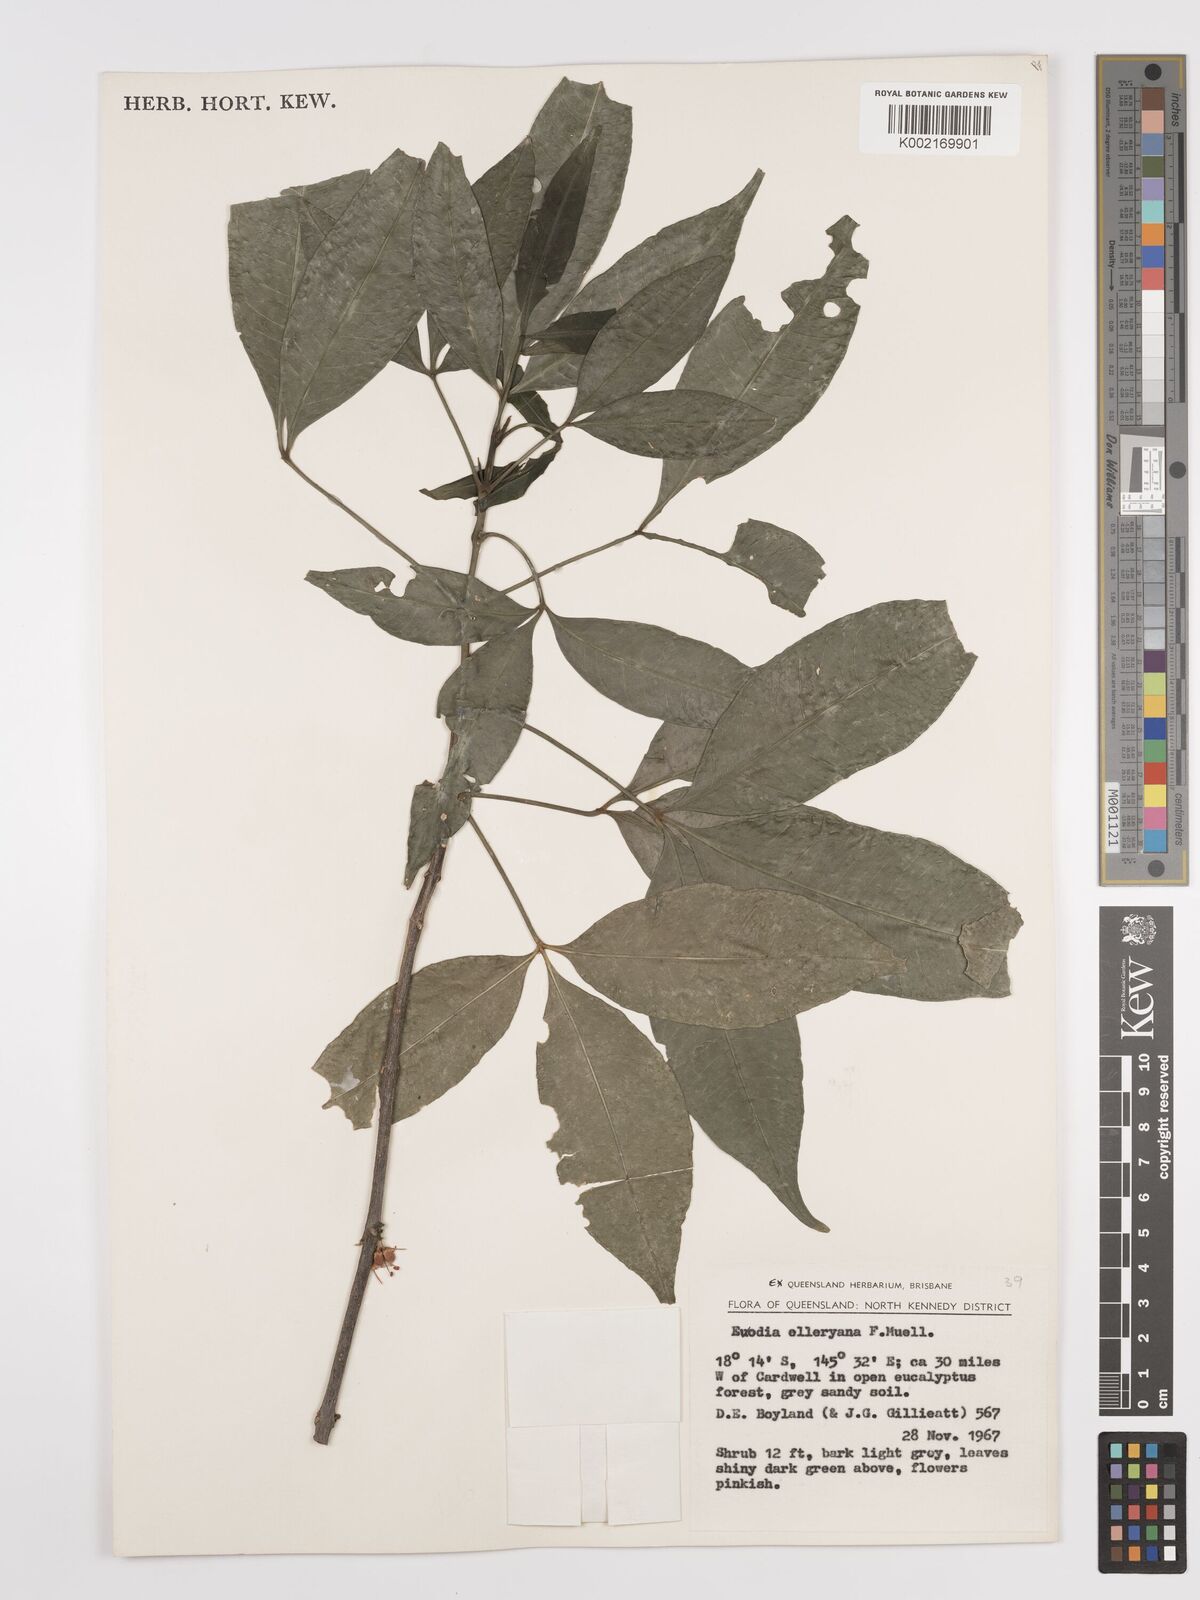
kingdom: Plantae
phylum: Tracheophyta
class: Magnoliopsida
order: Sapindales
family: Rutaceae
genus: Melicope
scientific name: Melicope accedens
